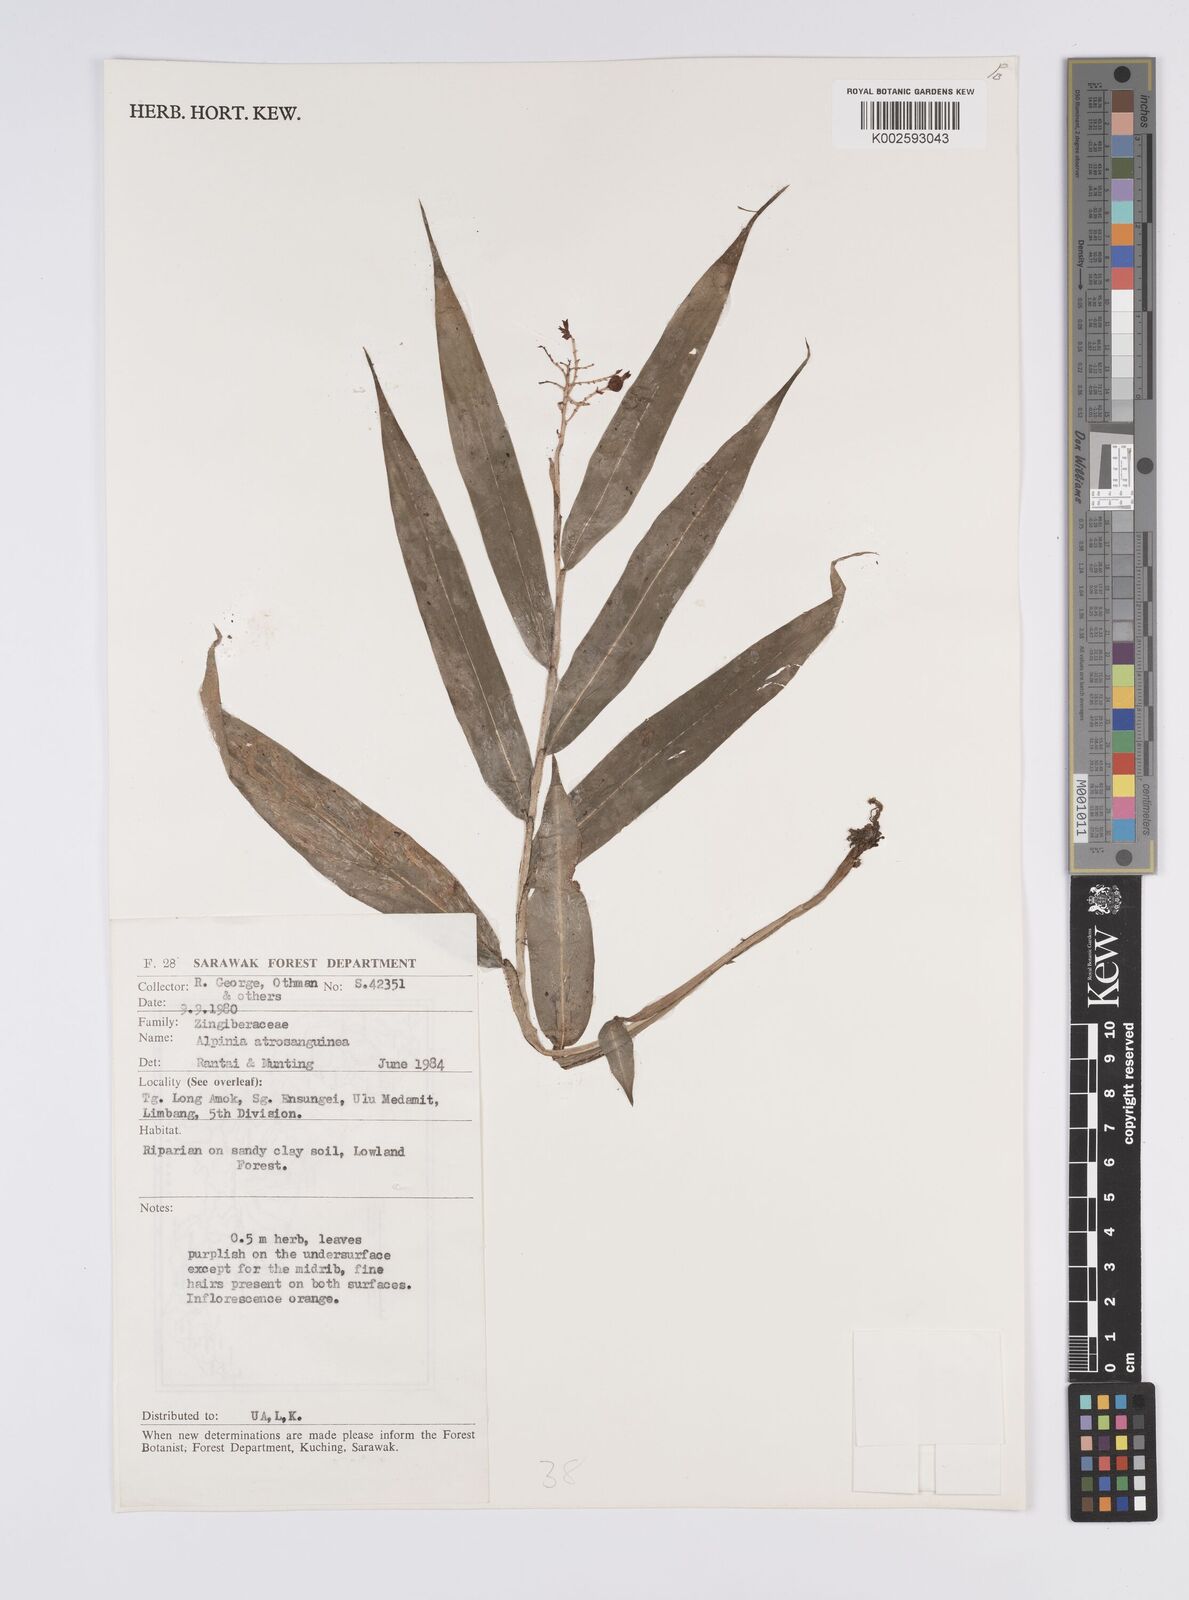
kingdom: Plantae
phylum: Tracheophyta
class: Liliopsida
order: Zingiberales
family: Zingiberaceae
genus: Globba
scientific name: Globba brachyanthera
